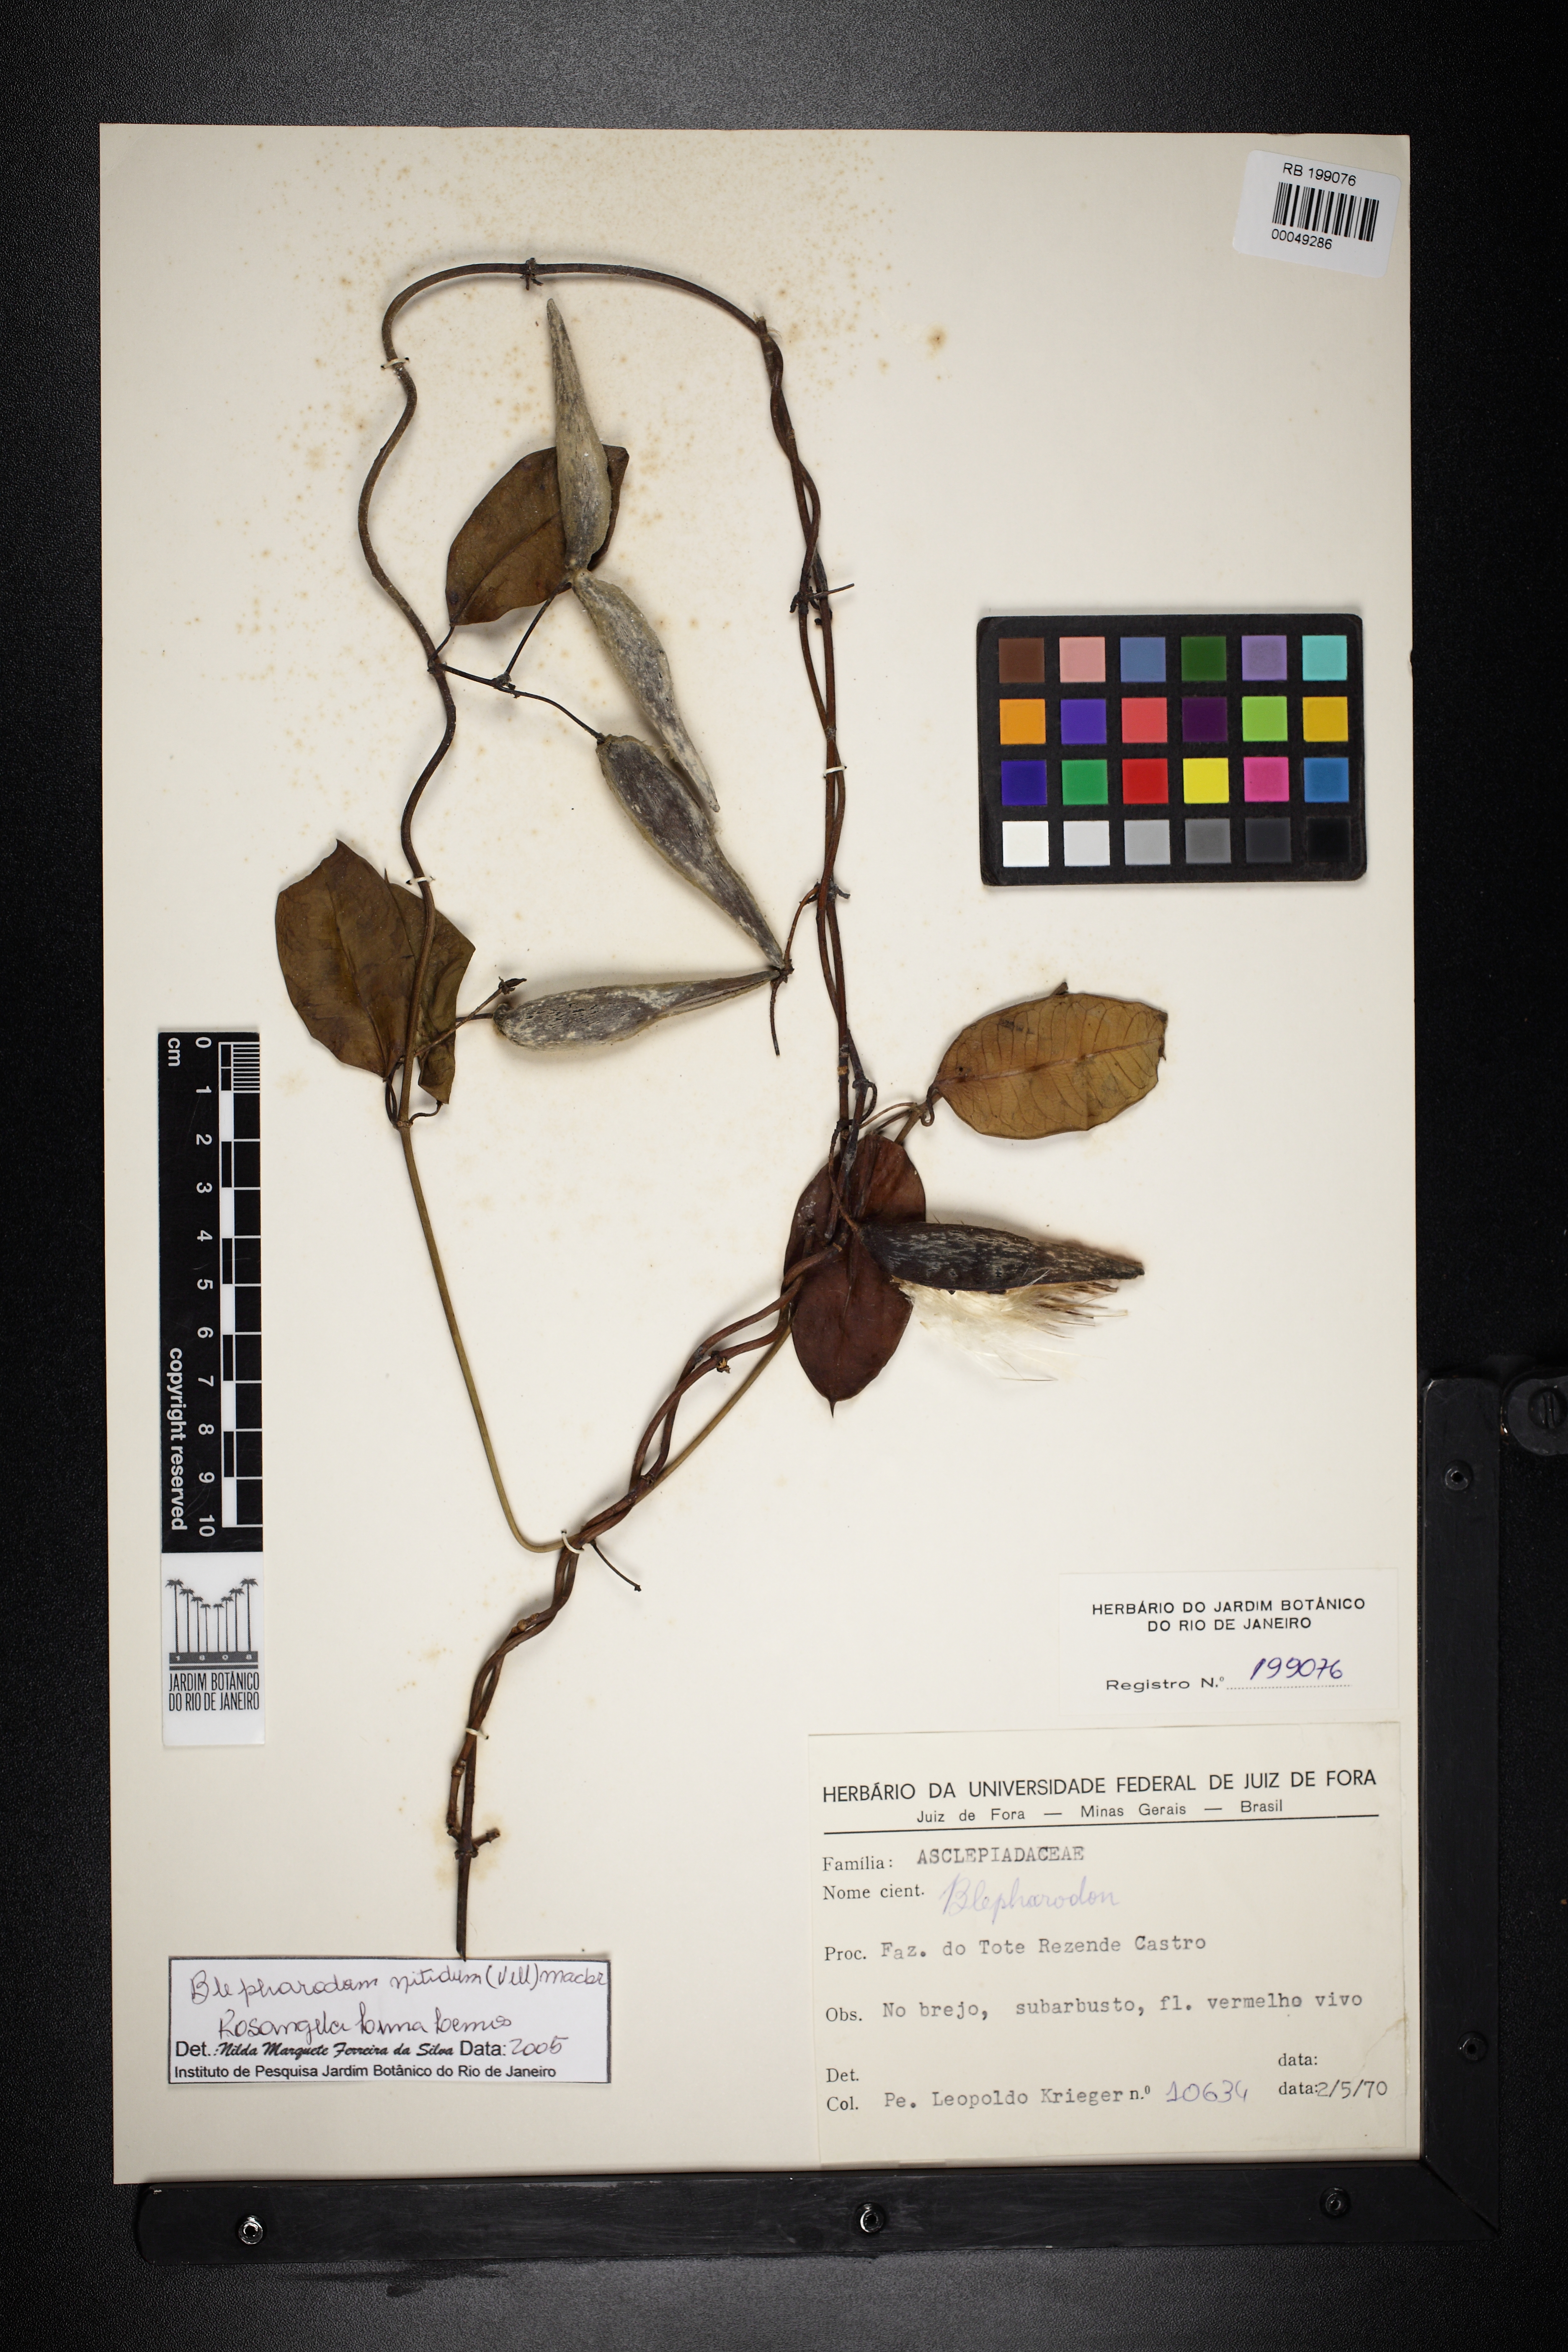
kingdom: Plantae
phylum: Tracheophyta
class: Magnoliopsida
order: Gentianales
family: Apocynaceae
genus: Blepharodon
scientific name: Blepharodon pictum
